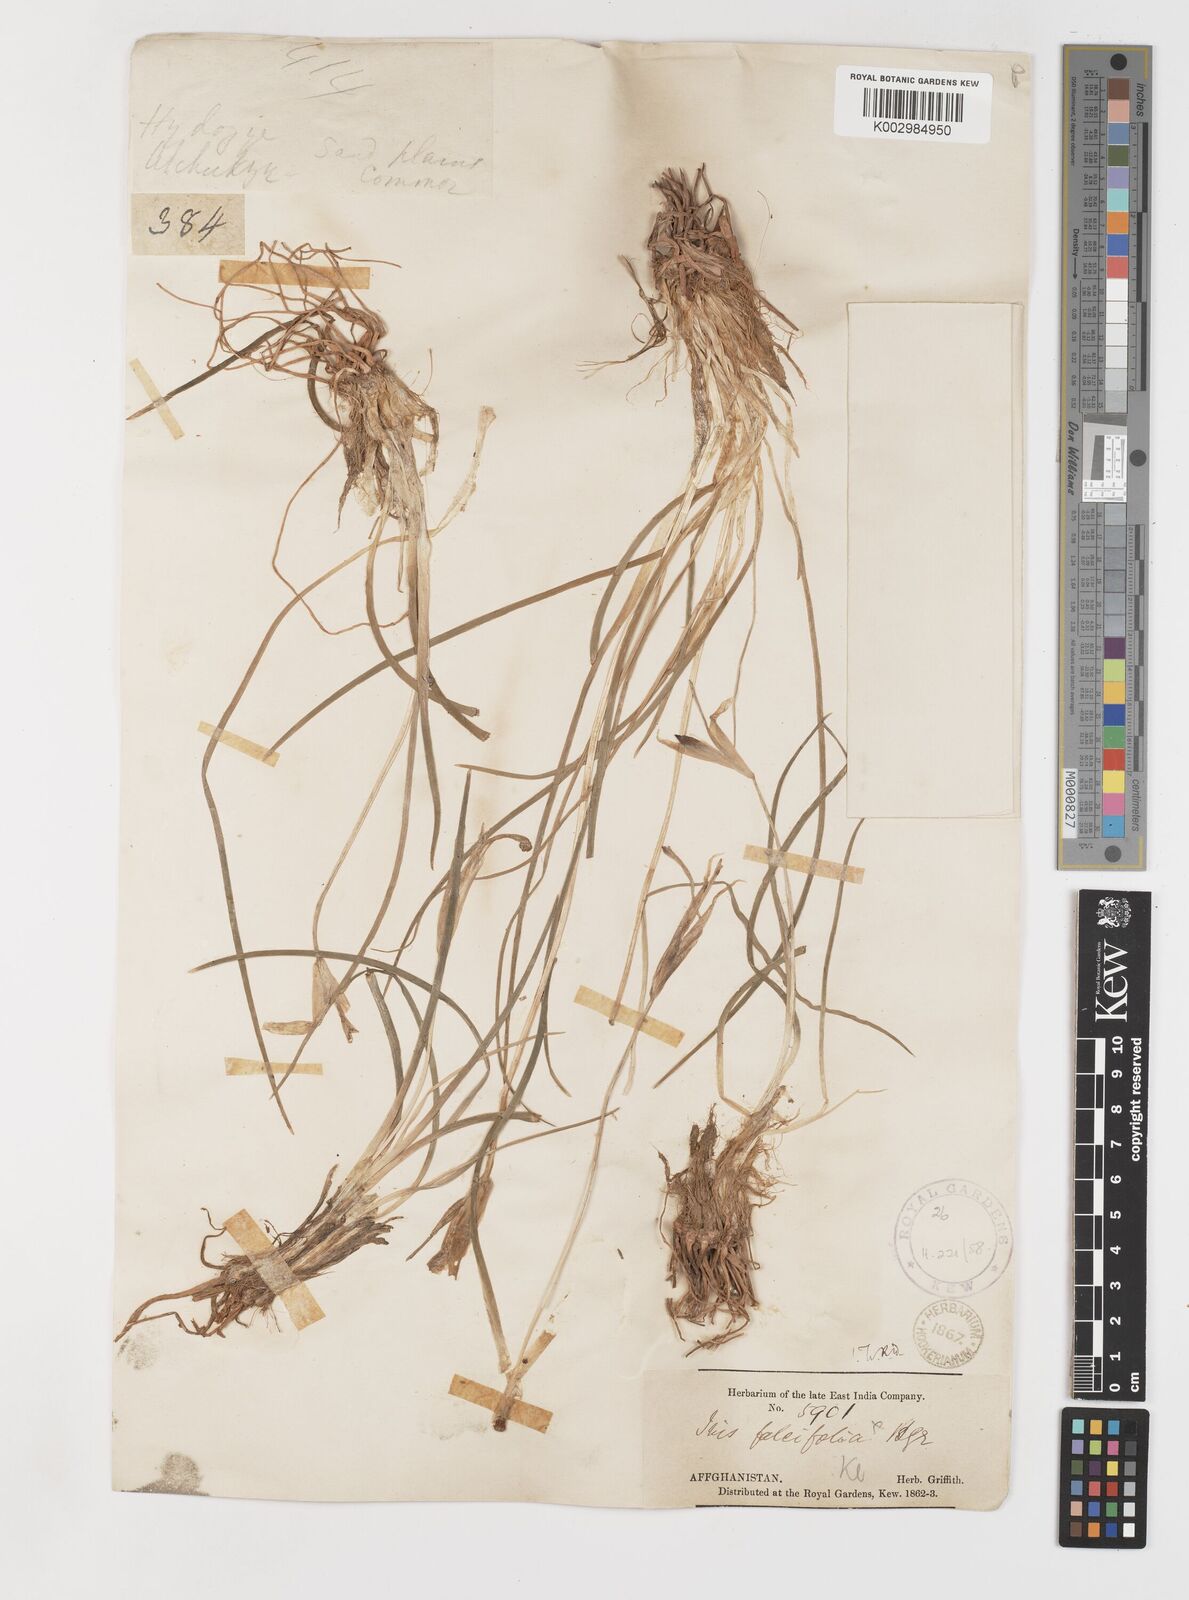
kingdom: Plantae
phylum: Tracheophyta
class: Liliopsida
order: Asparagales
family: Iridaceae
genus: Iris
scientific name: Iris longiscapa
